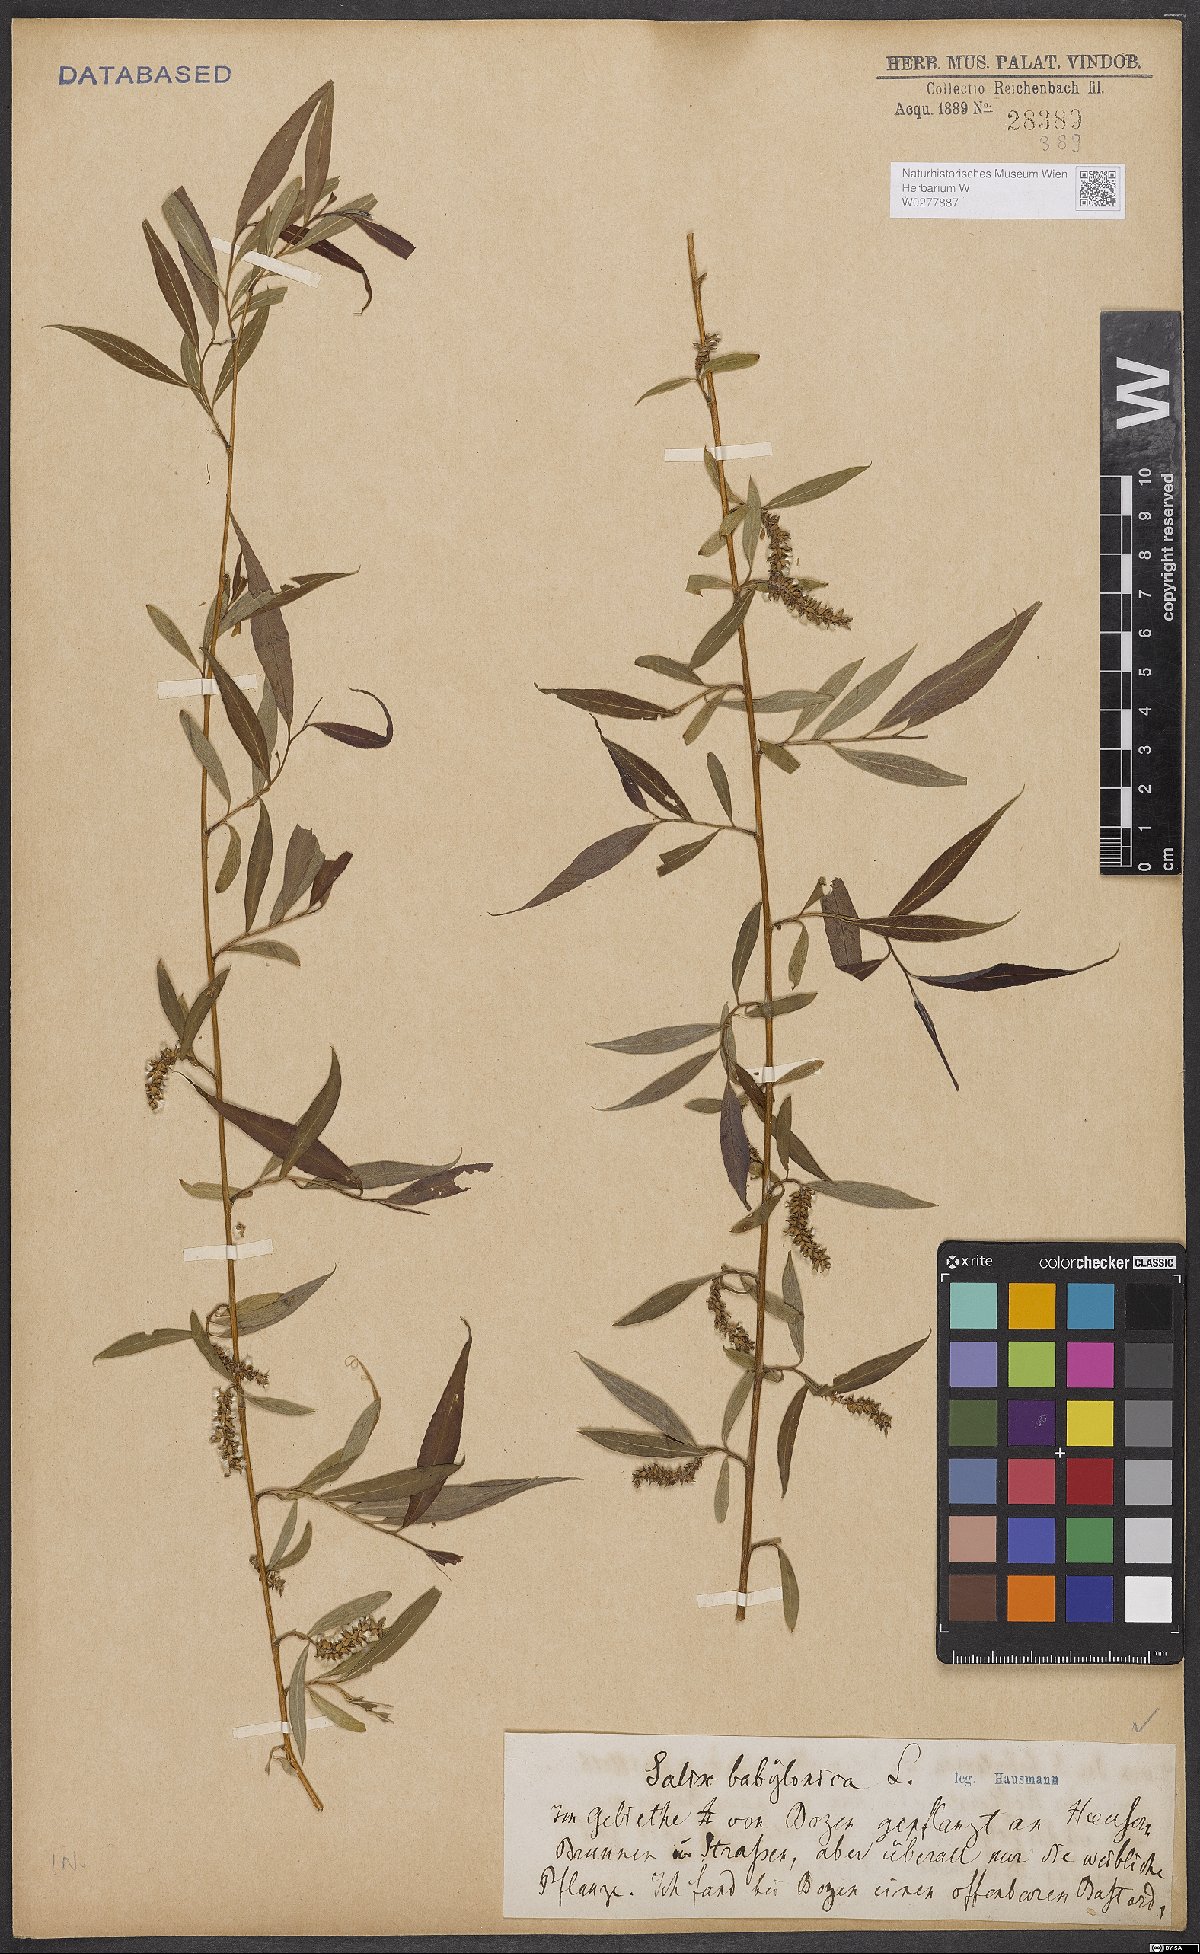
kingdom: Plantae
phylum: Tracheophyta
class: Magnoliopsida
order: Malpighiales
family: Salicaceae
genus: Salix
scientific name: Salix babylonica
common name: Weeping willow
